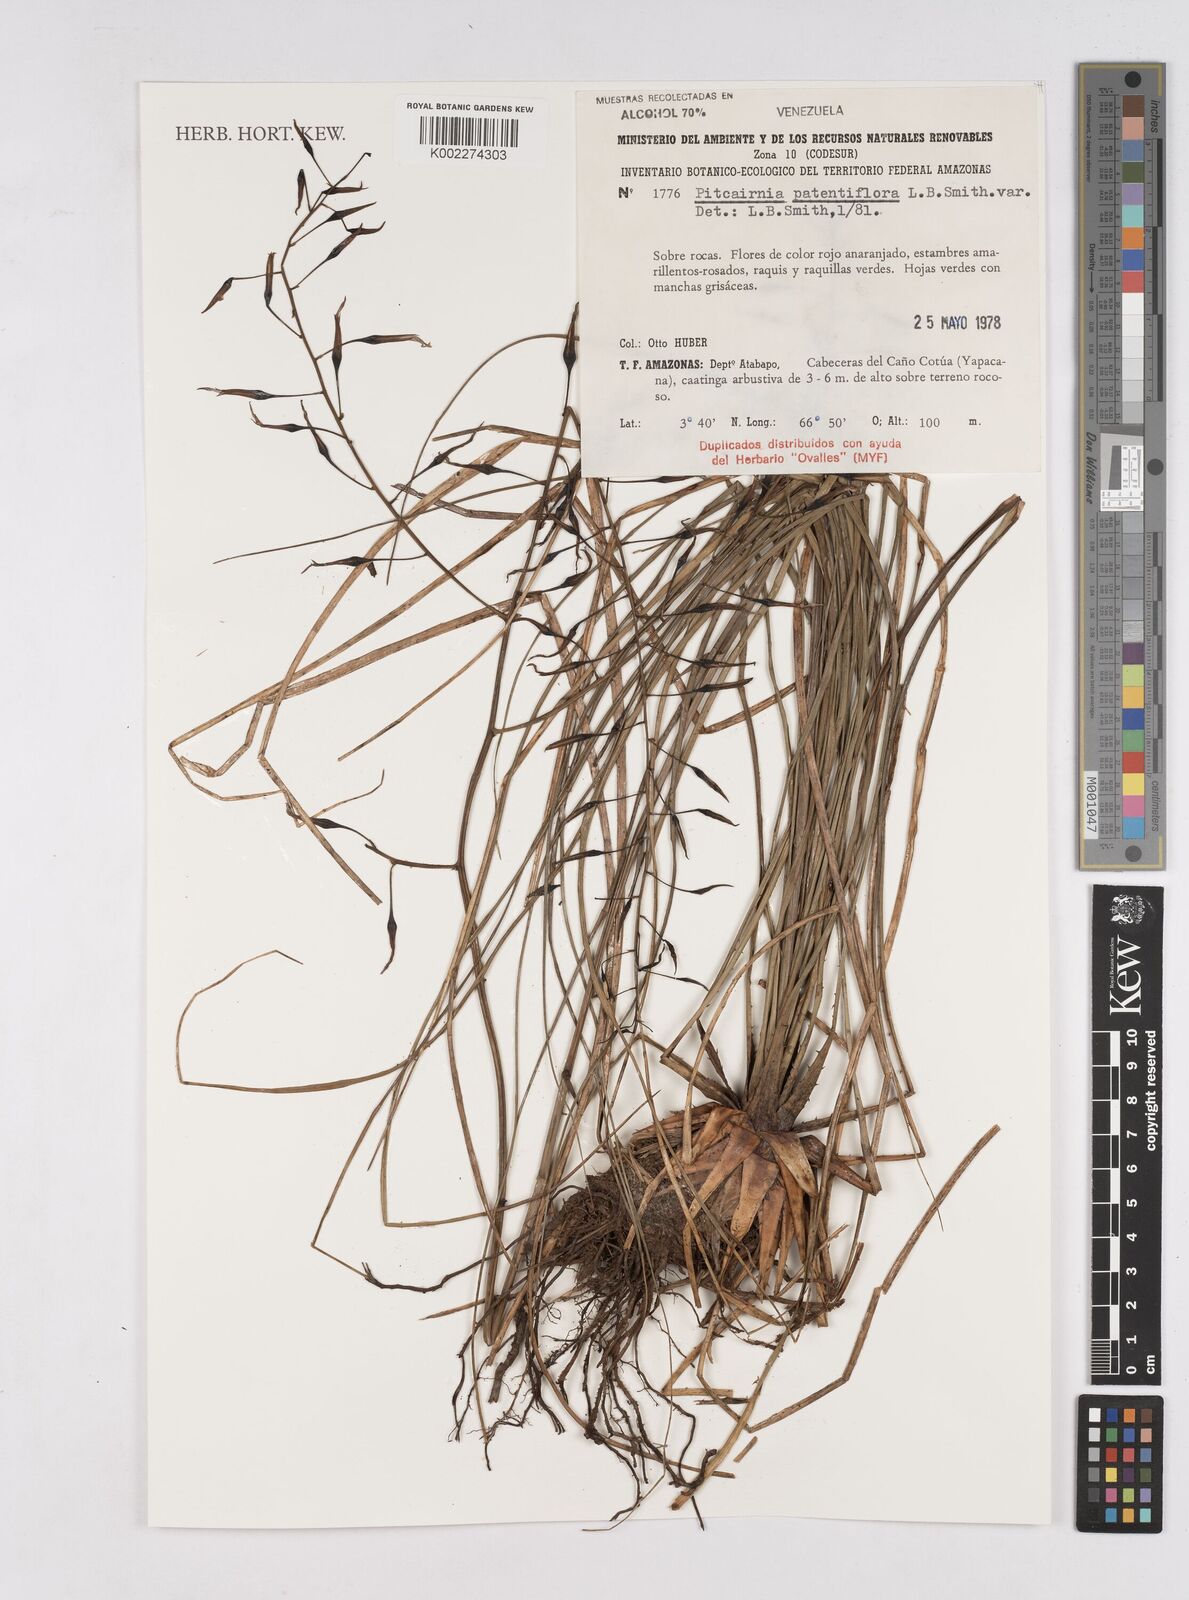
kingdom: Plantae
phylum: Tracheophyta
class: Liliopsida
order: Poales
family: Bromeliaceae
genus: Pitcairnia
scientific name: Pitcairnia patentiflora
